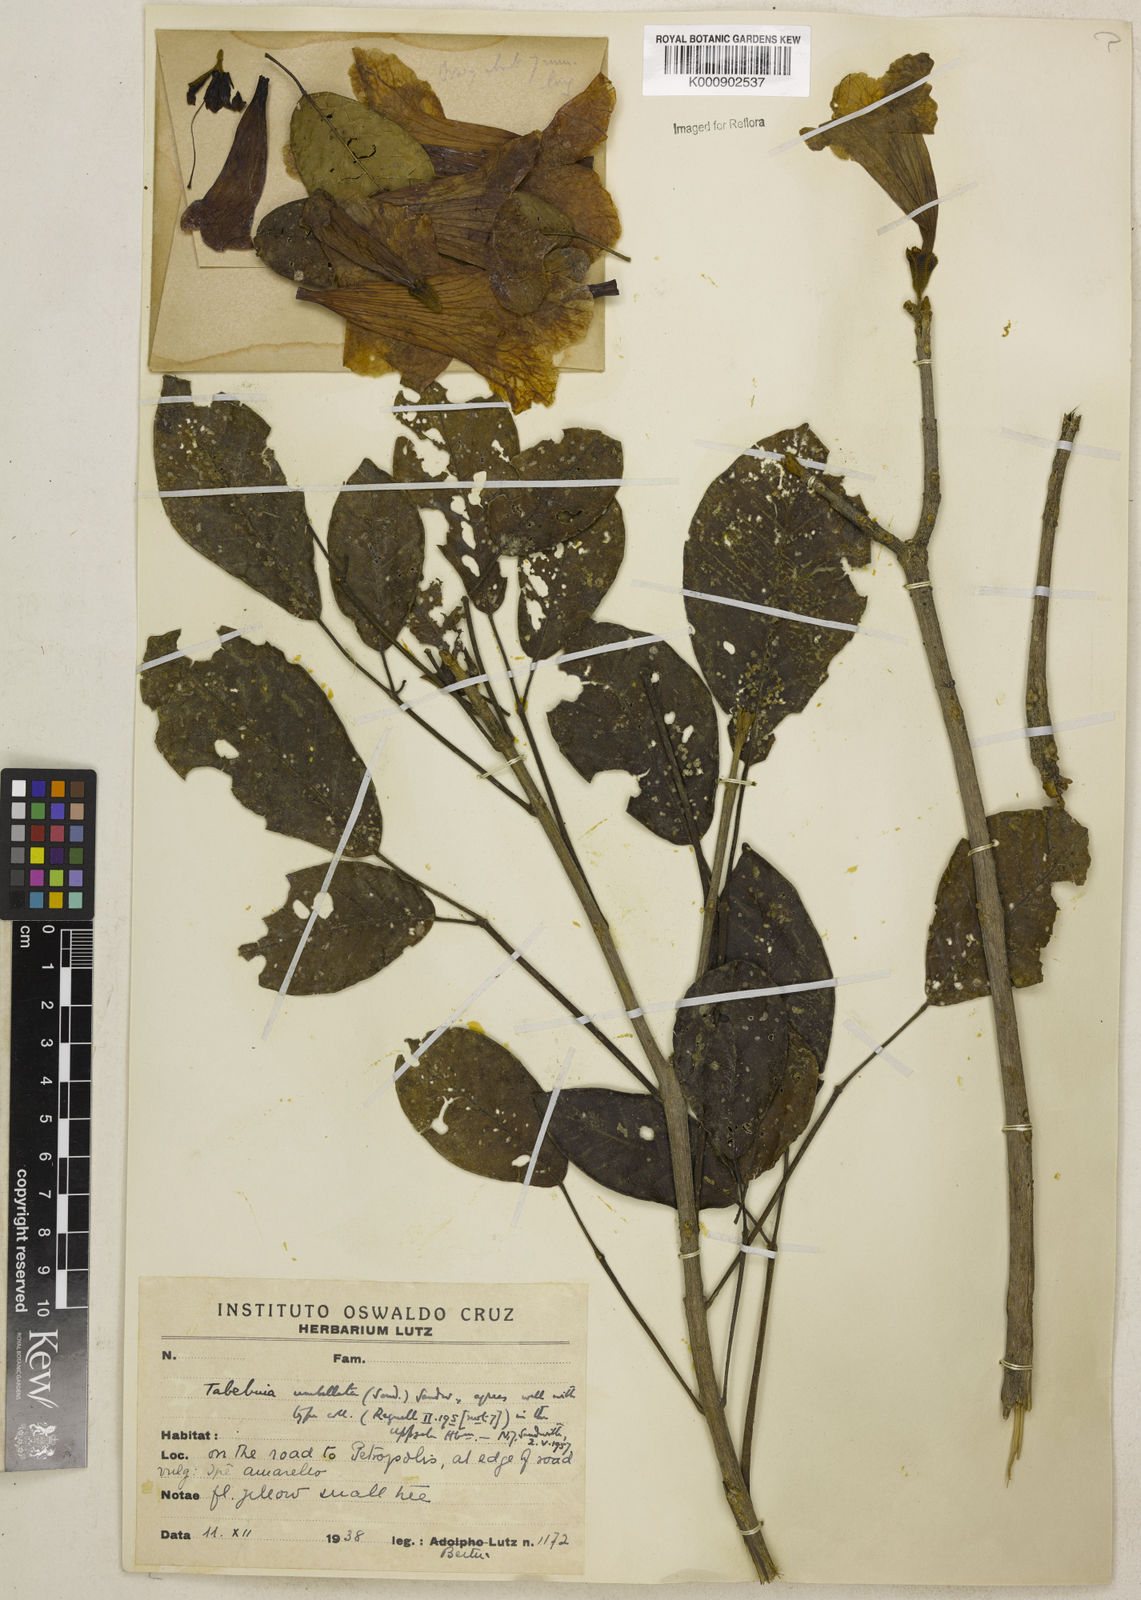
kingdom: Plantae
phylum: Tracheophyta
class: Magnoliopsida
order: Lamiales
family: Bignoniaceae
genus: Handroanthus
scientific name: Handroanthus umbellatus
